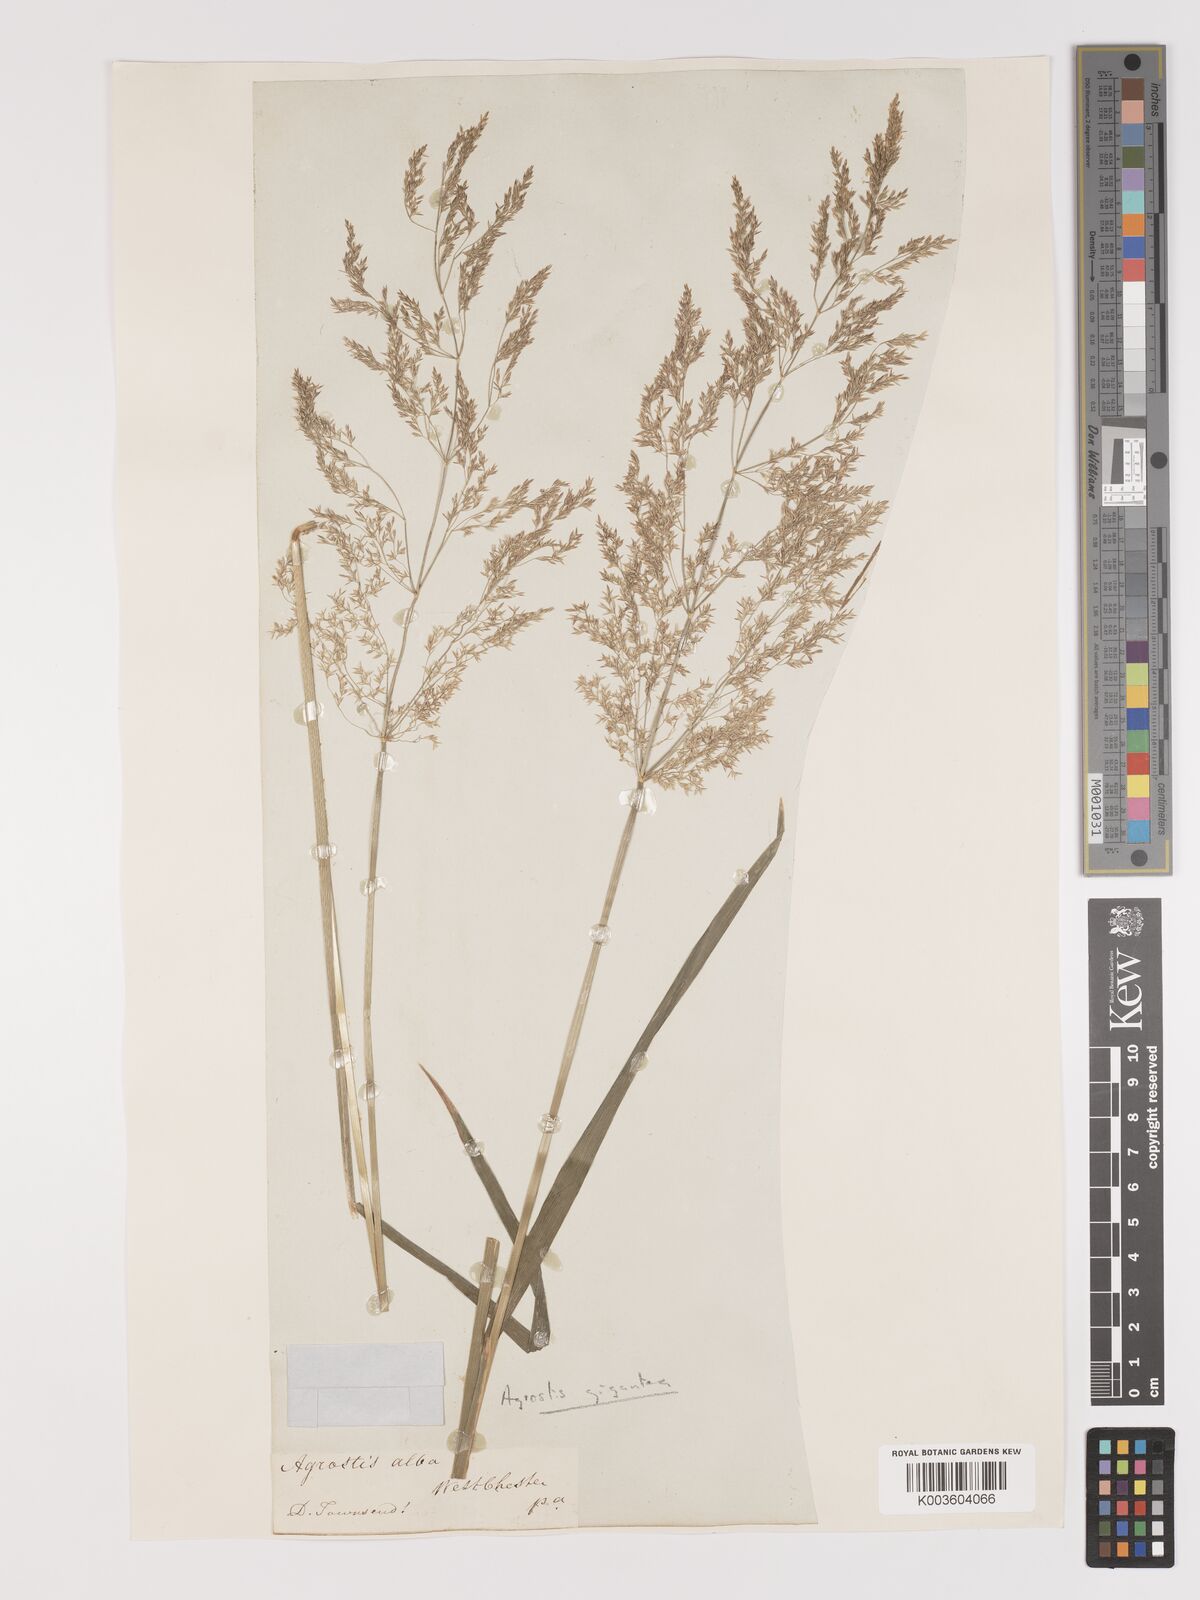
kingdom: Plantae
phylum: Tracheophyta
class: Liliopsida
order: Poales
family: Poaceae
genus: Agrostis
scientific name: Agrostis gigantea
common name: Black bent
